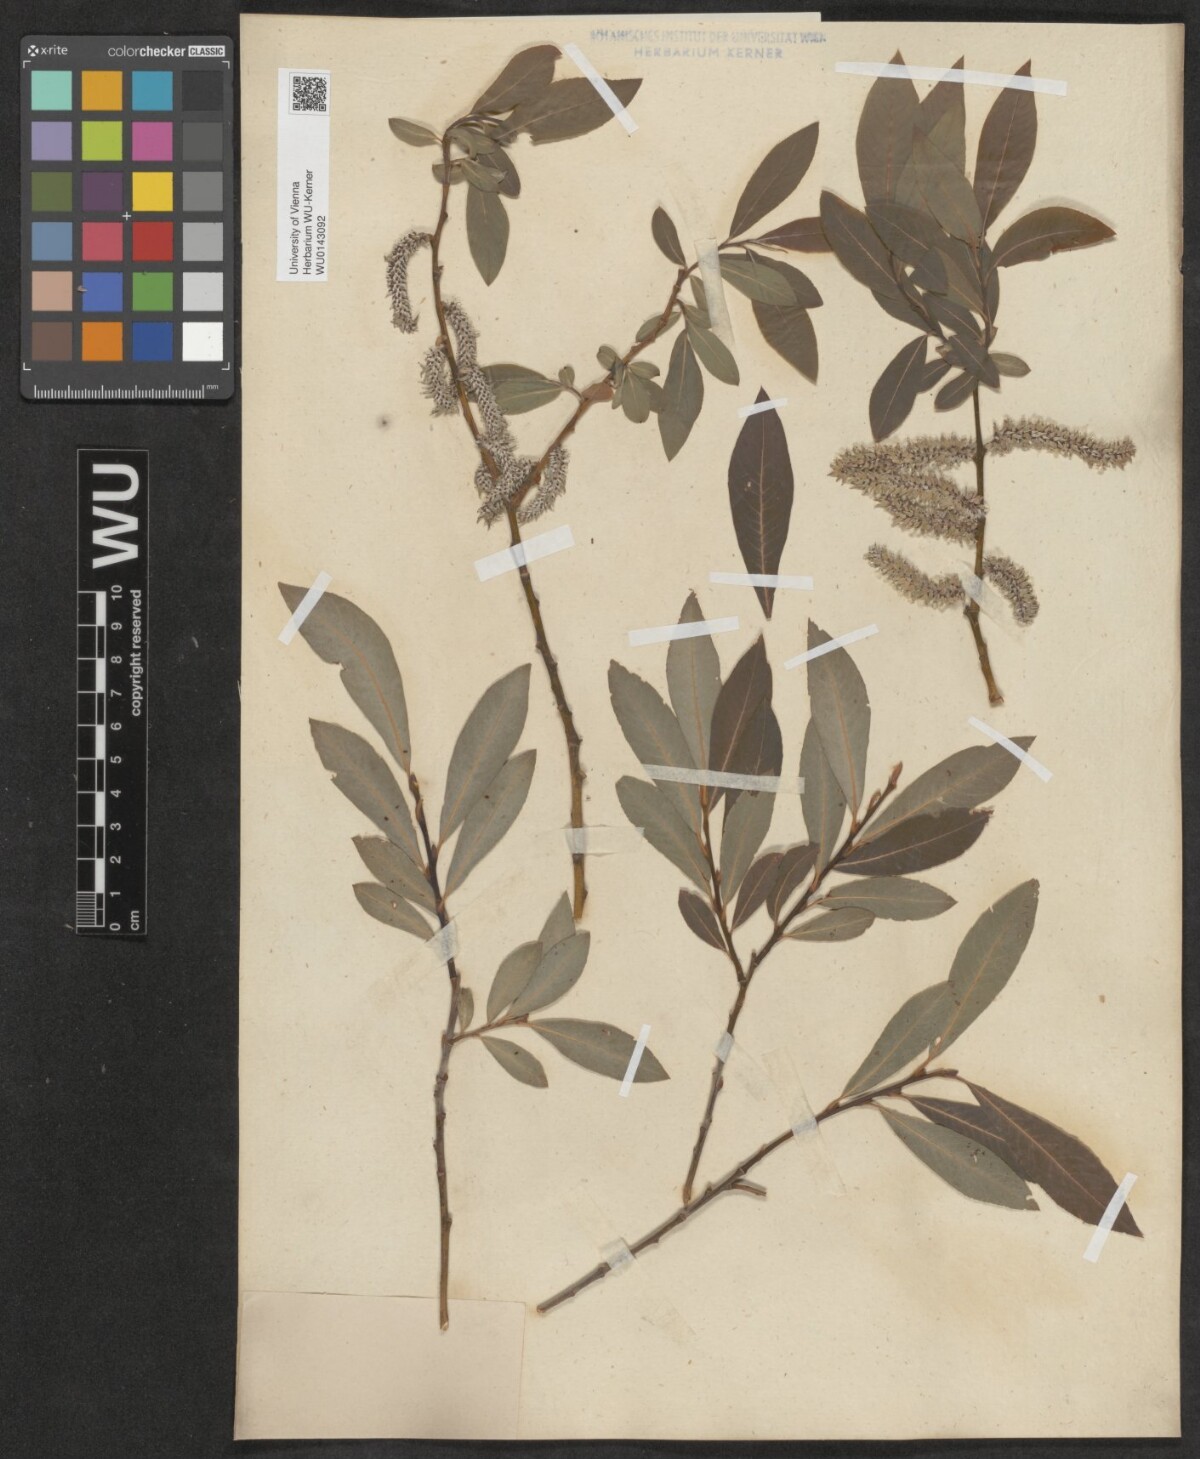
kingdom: Plantae
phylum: Tracheophyta
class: Magnoliopsida
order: Malpighiales
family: Salicaceae
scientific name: Salicaceae
